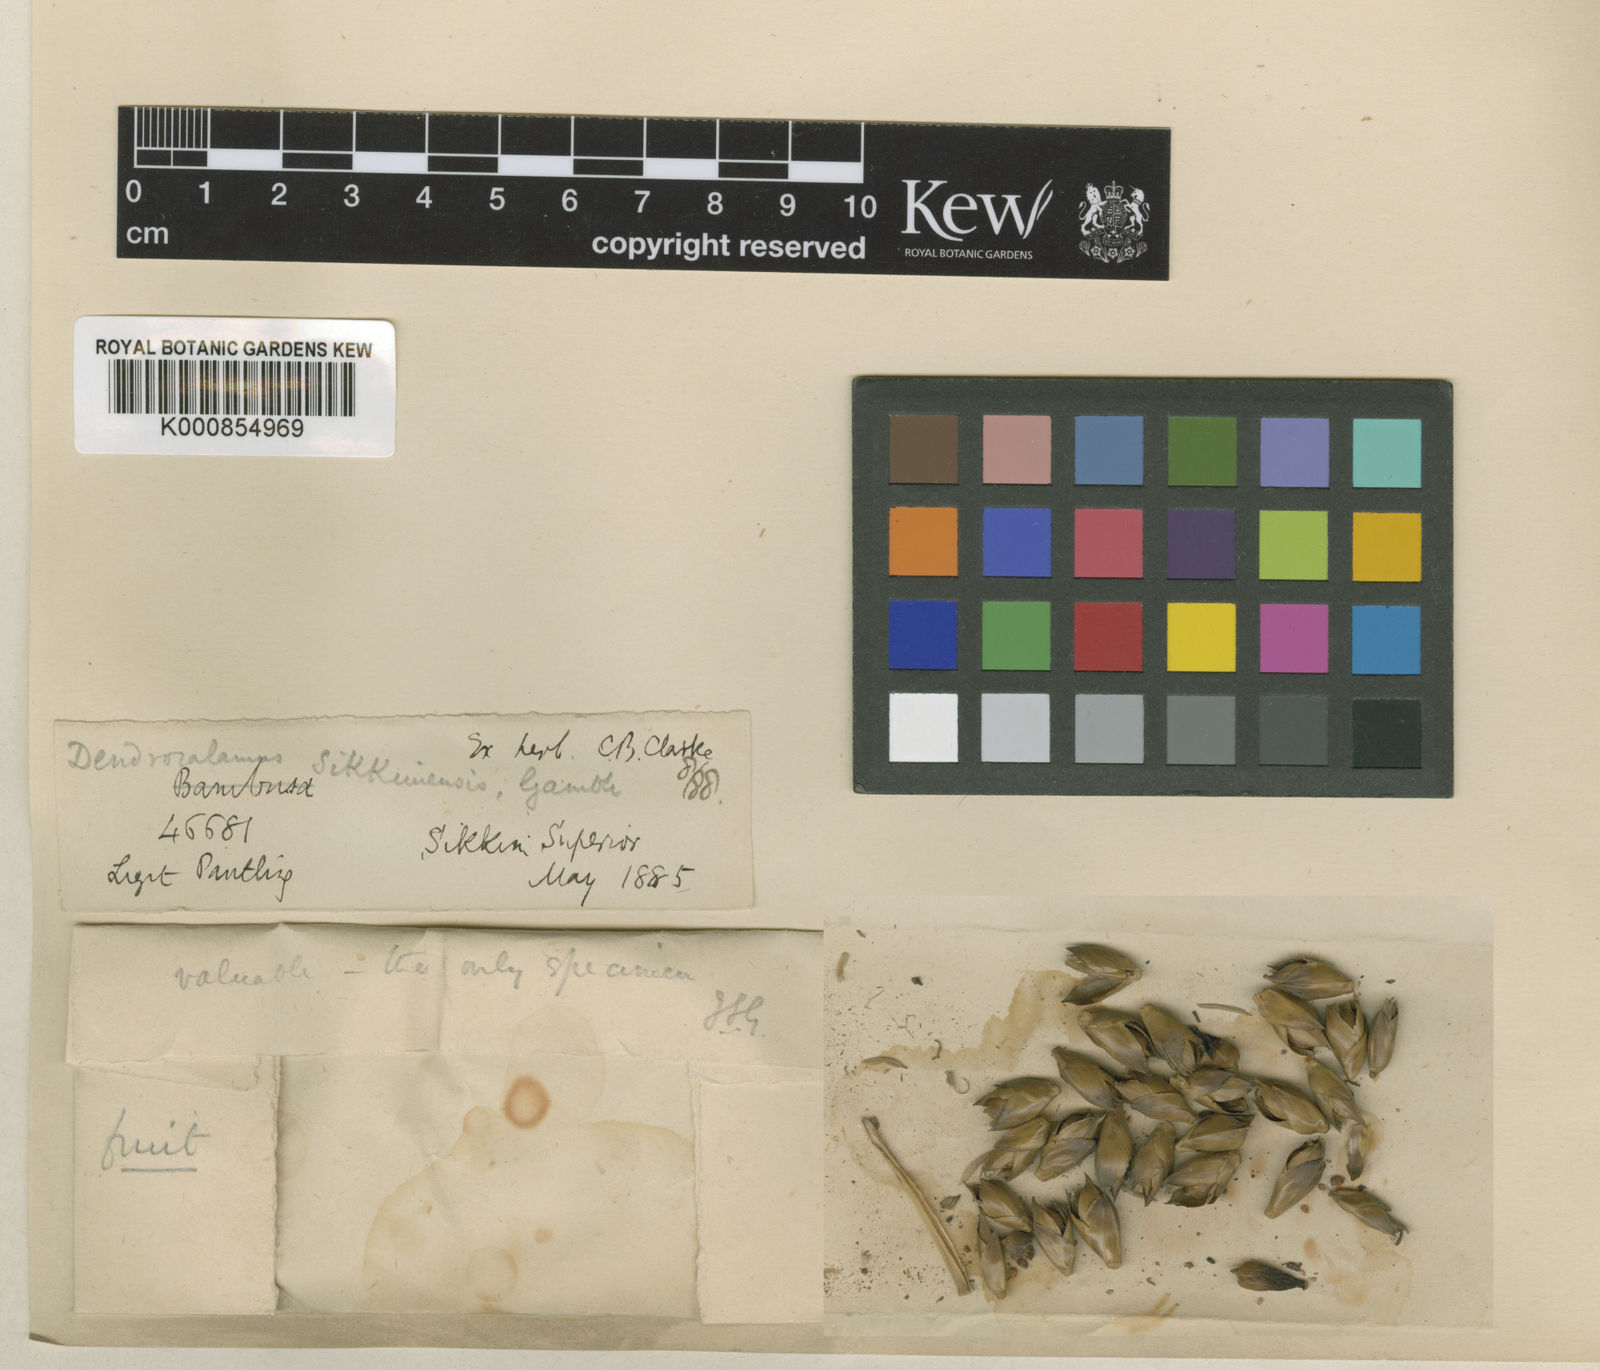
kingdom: Plantae
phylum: Tracheophyta
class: Liliopsida
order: Poales
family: Poaceae
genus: Dendrocalamus
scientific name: Dendrocalamus sikkimensis
